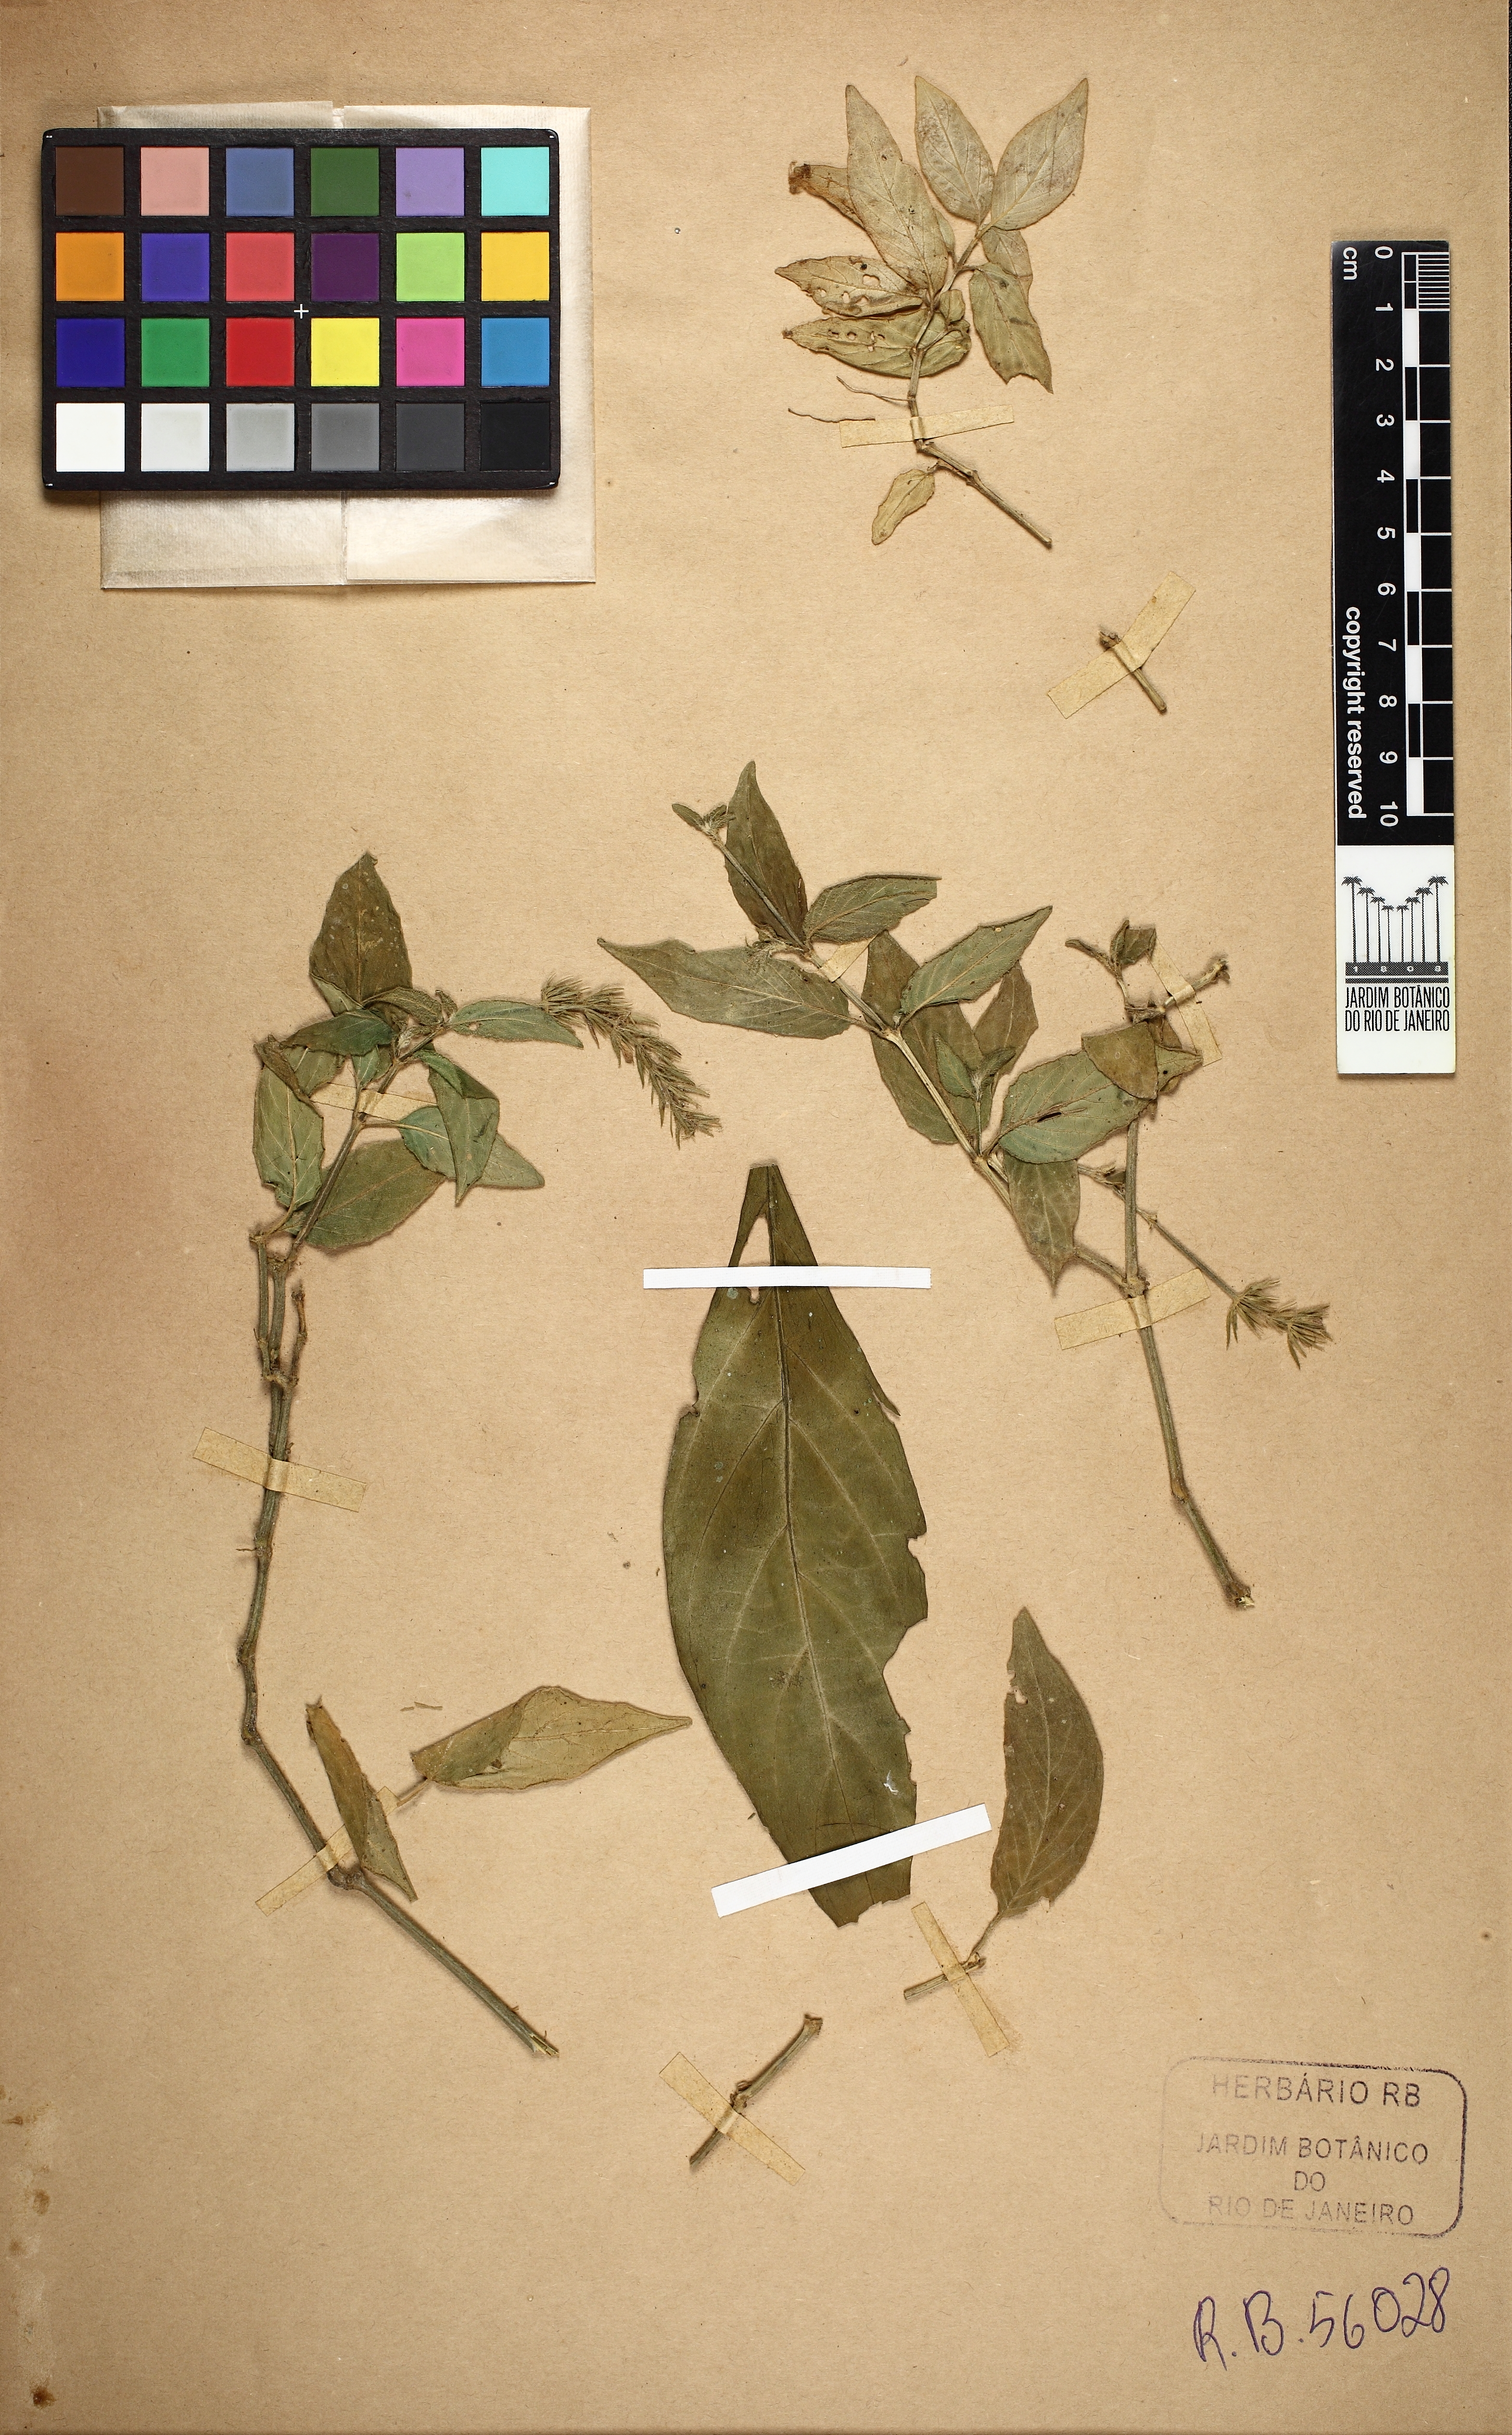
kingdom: Plantae
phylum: Tracheophyta
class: Magnoliopsida
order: Lamiales
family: Acanthaceae
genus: Justicia
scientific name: Justicia genuflexa
